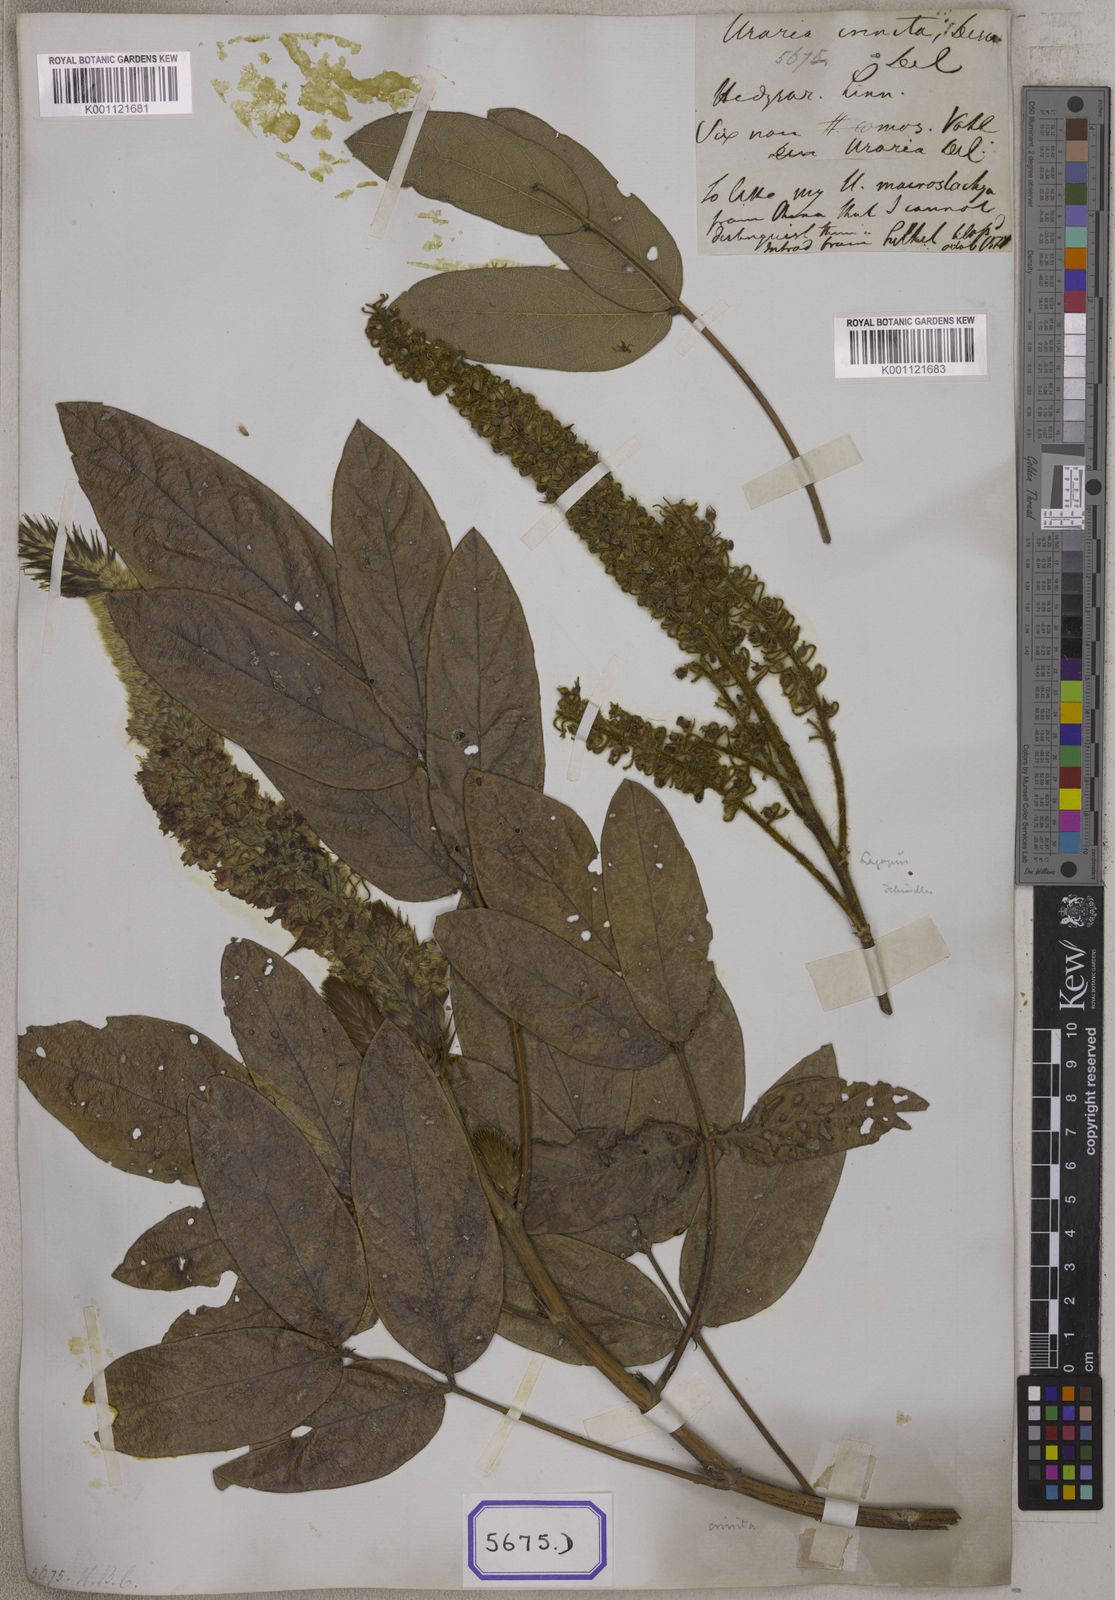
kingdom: Plantae
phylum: Tracheophyta
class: Magnoliopsida
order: Fabales
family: Fabaceae
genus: Uraria
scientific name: Uraria
